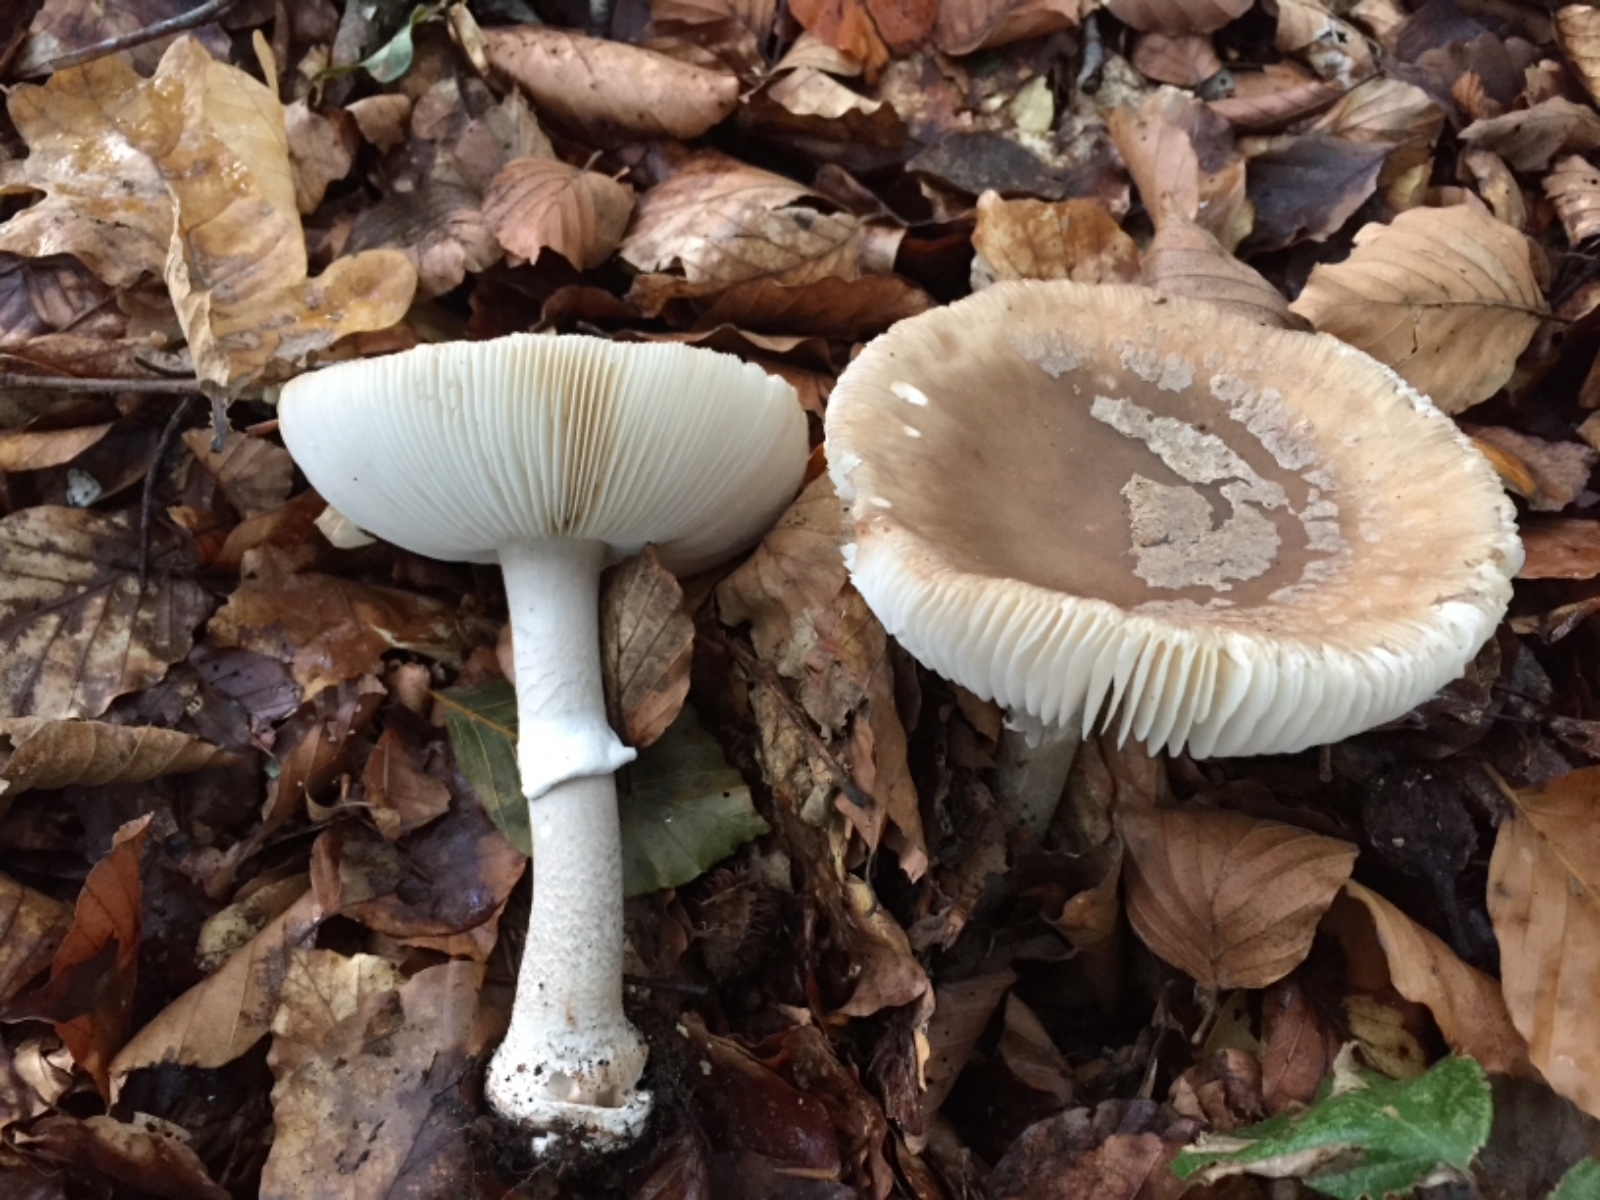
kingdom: Fungi
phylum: Basidiomycota
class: Agaricomycetes
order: Agaricales
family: Amanitaceae
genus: Amanita
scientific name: Amanita
